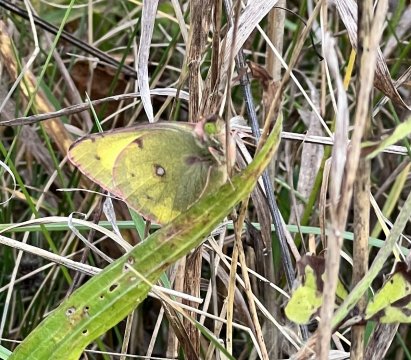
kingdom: Animalia
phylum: Arthropoda
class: Insecta
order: Lepidoptera
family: Pieridae
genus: Colias
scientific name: Colias philodice
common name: Clouded Sulphur
